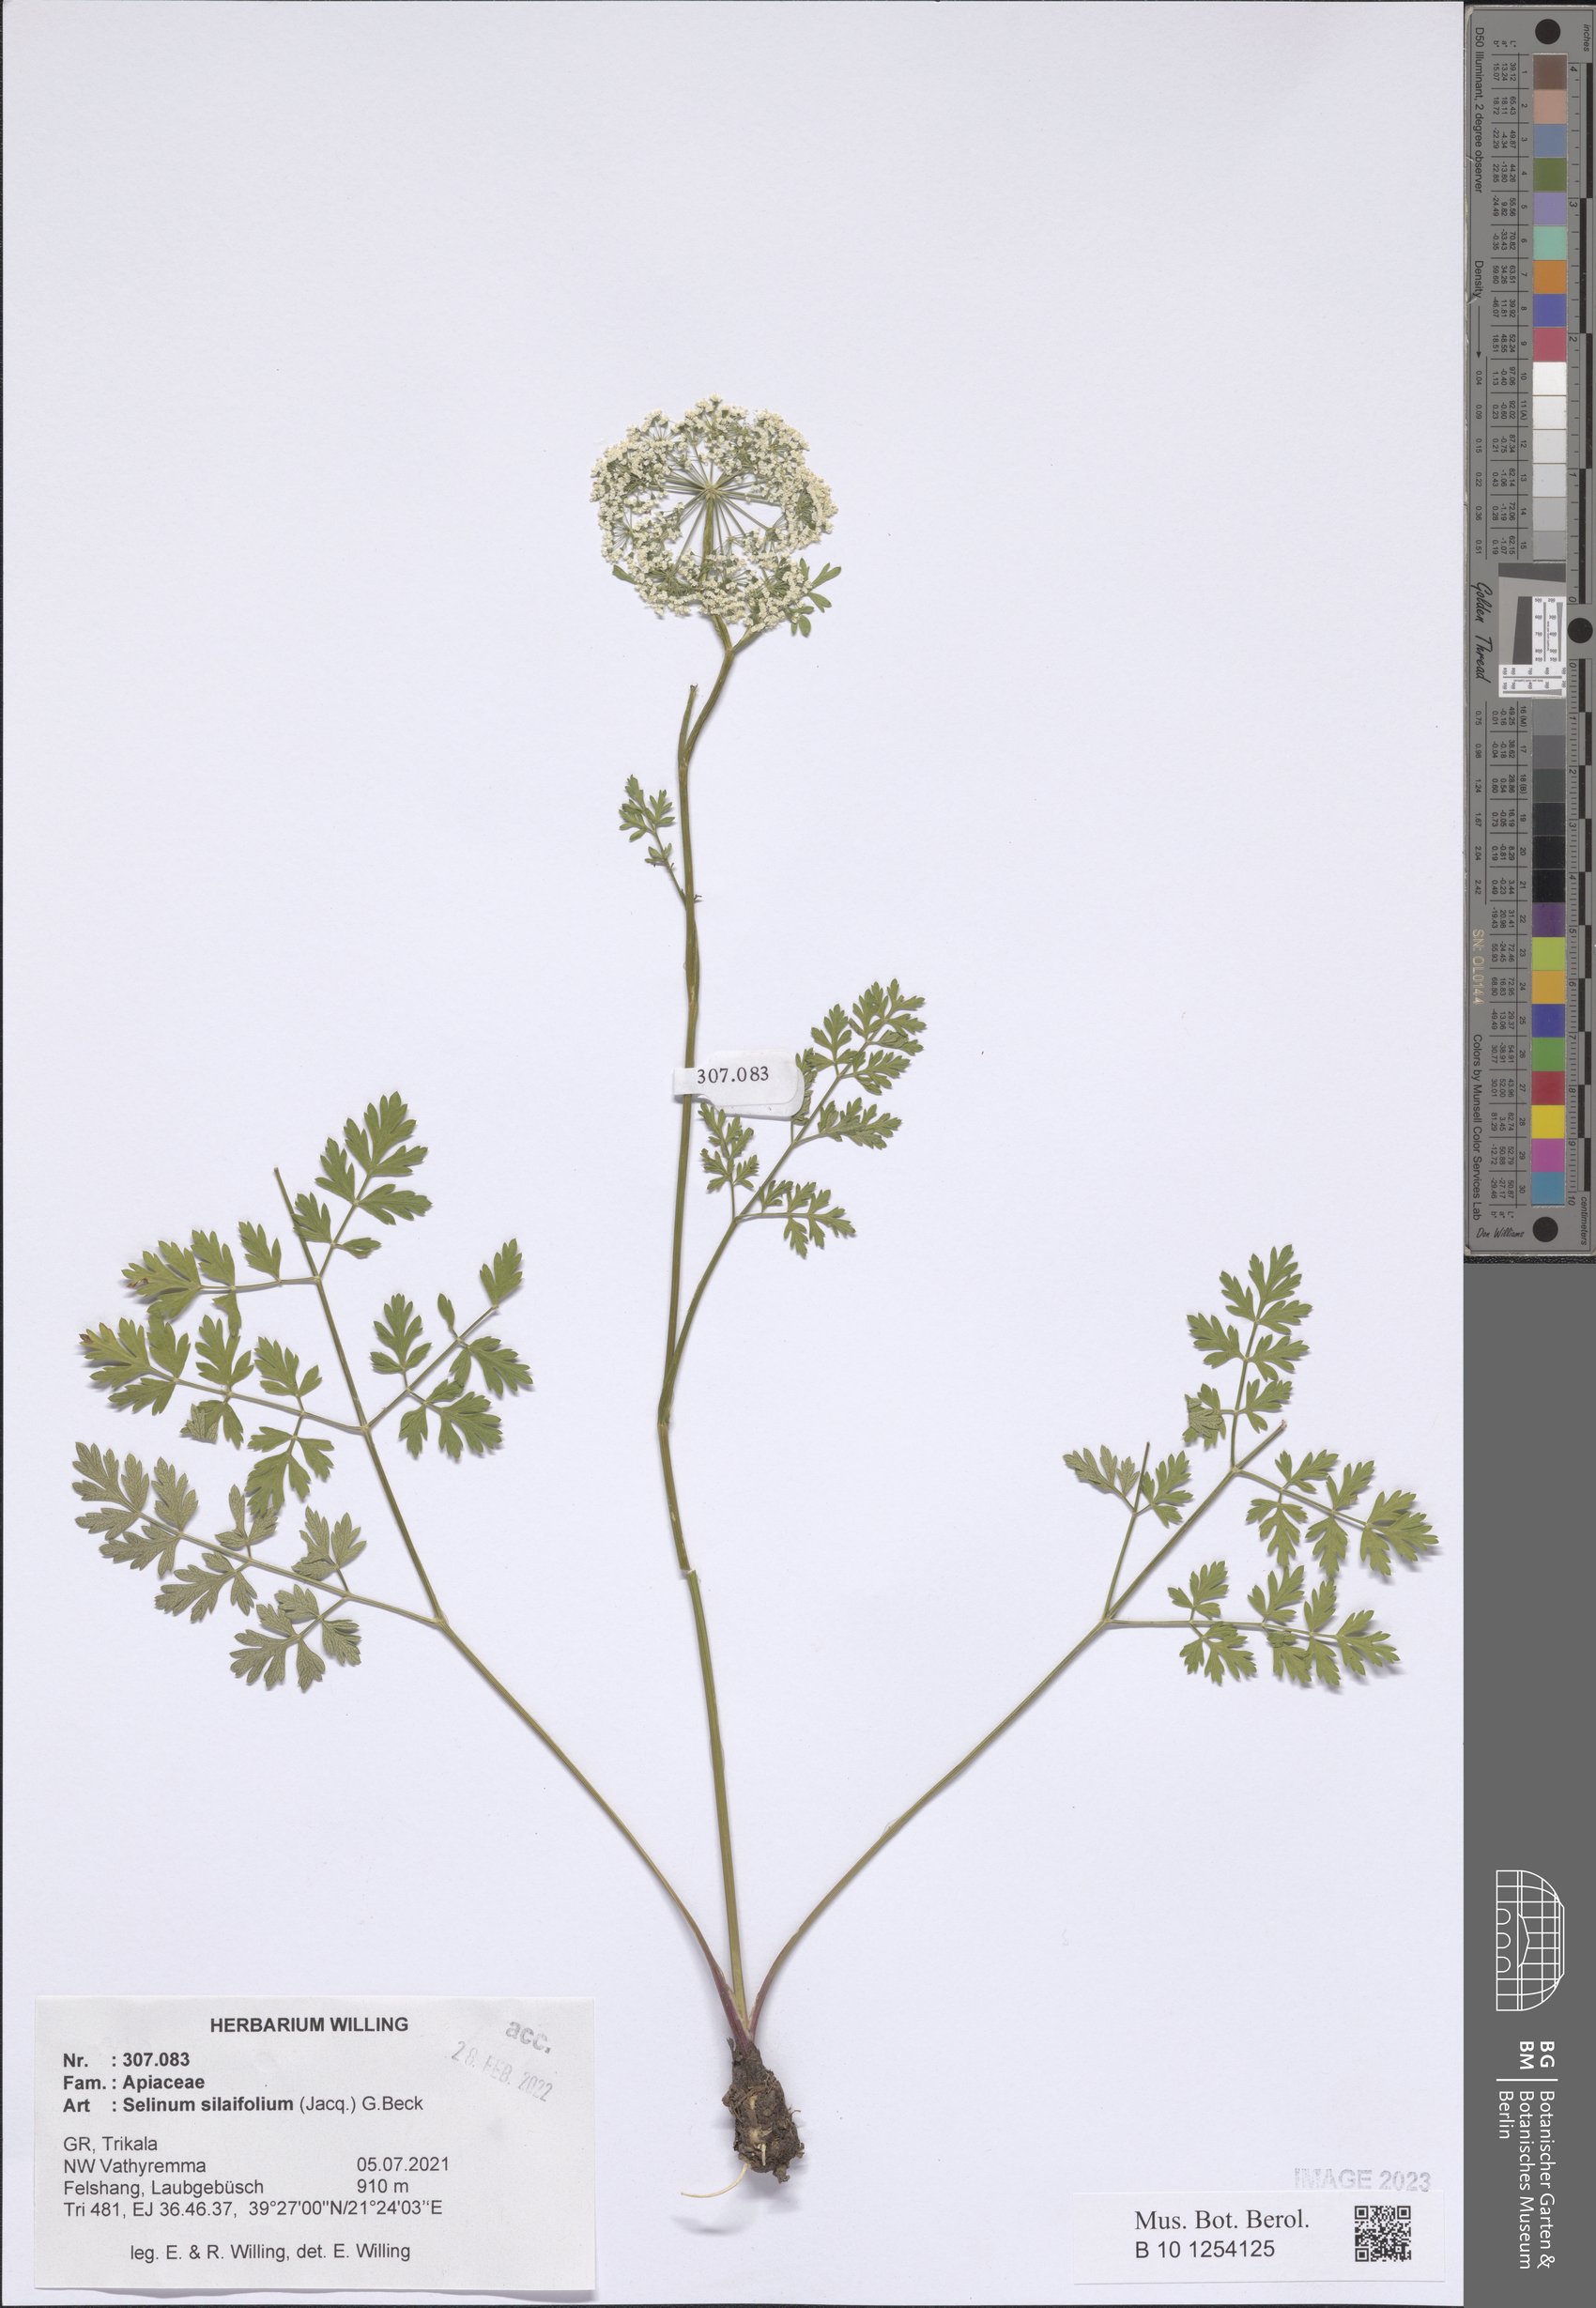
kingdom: Plantae
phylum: Tracheophyta
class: Magnoliopsida
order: Apiales
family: Apiaceae
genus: Katapsuxis
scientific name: Katapsuxis silaifolia
